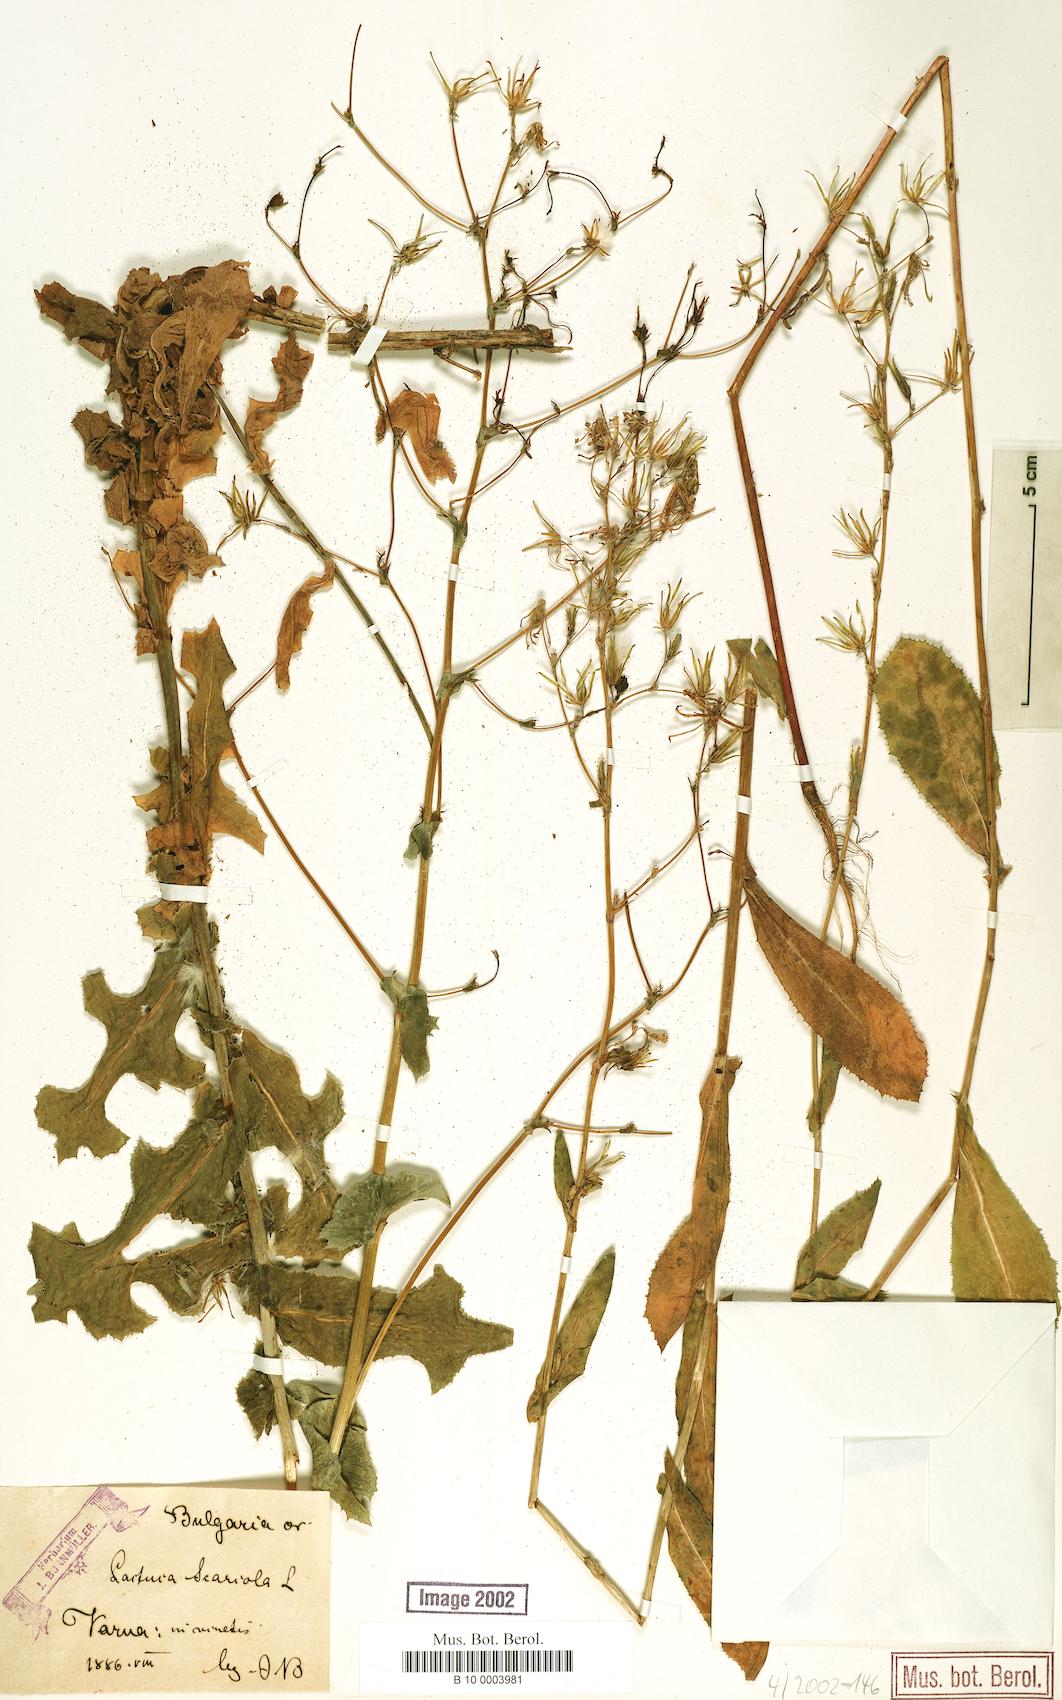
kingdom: Plantae
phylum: Tracheophyta
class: Magnoliopsida
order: Asterales
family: Asteraceae
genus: Lactuca
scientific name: Lactuca serriola
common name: Prickly lettuce
